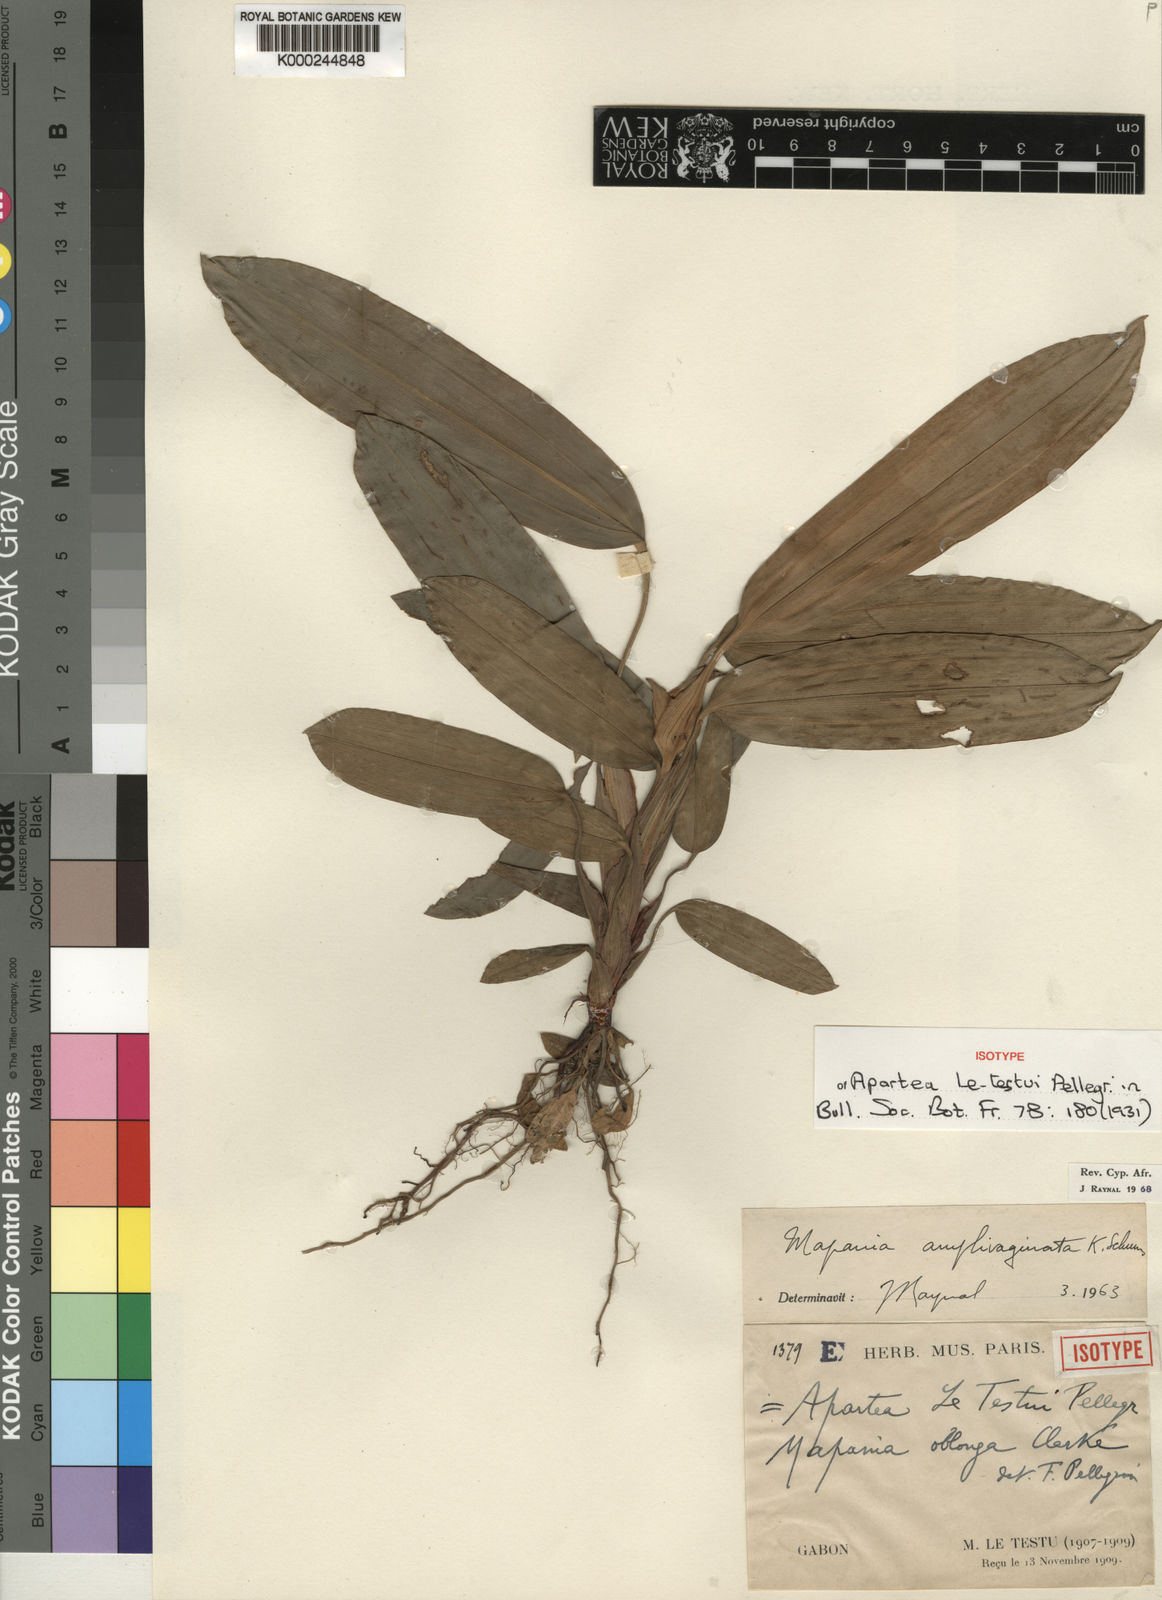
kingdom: Plantae
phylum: Tracheophyta
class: Liliopsida
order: Poales
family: Cyperaceae
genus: Mapania
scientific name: Mapania amplivaginata
